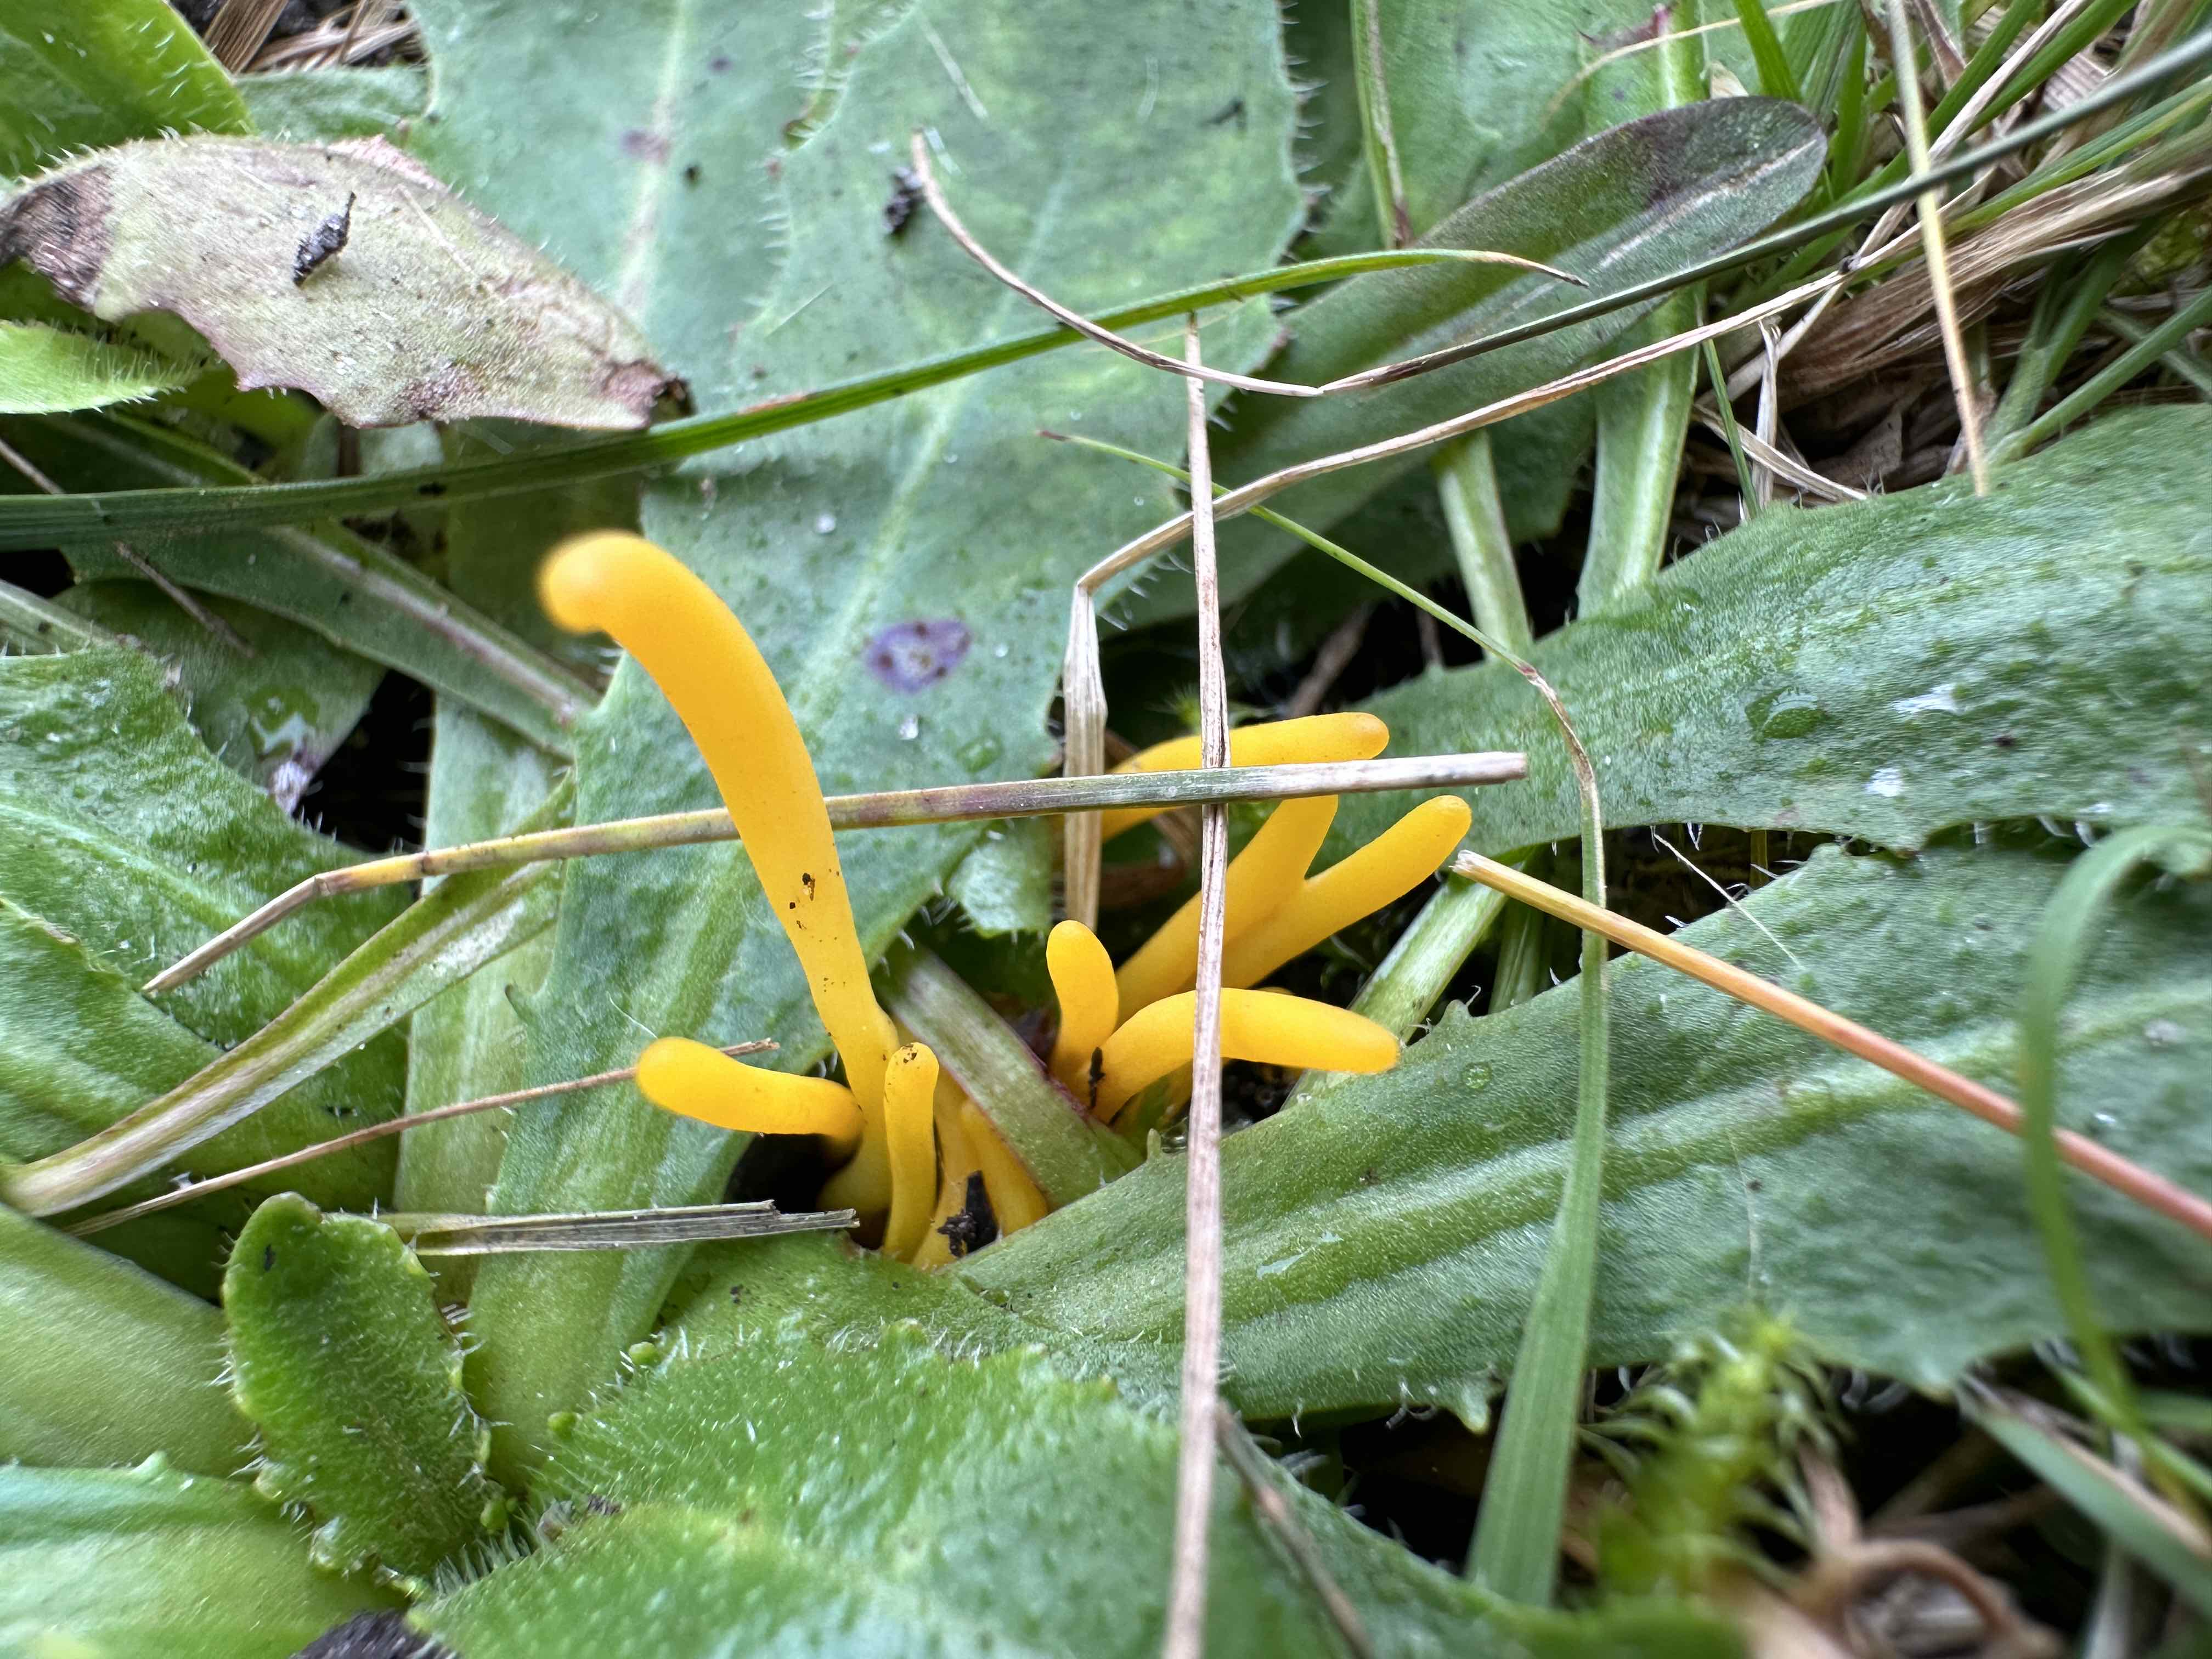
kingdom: Fungi
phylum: Basidiomycota
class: Agaricomycetes
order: Agaricales
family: Clavariaceae
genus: Clavulinopsis
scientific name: Clavulinopsis
